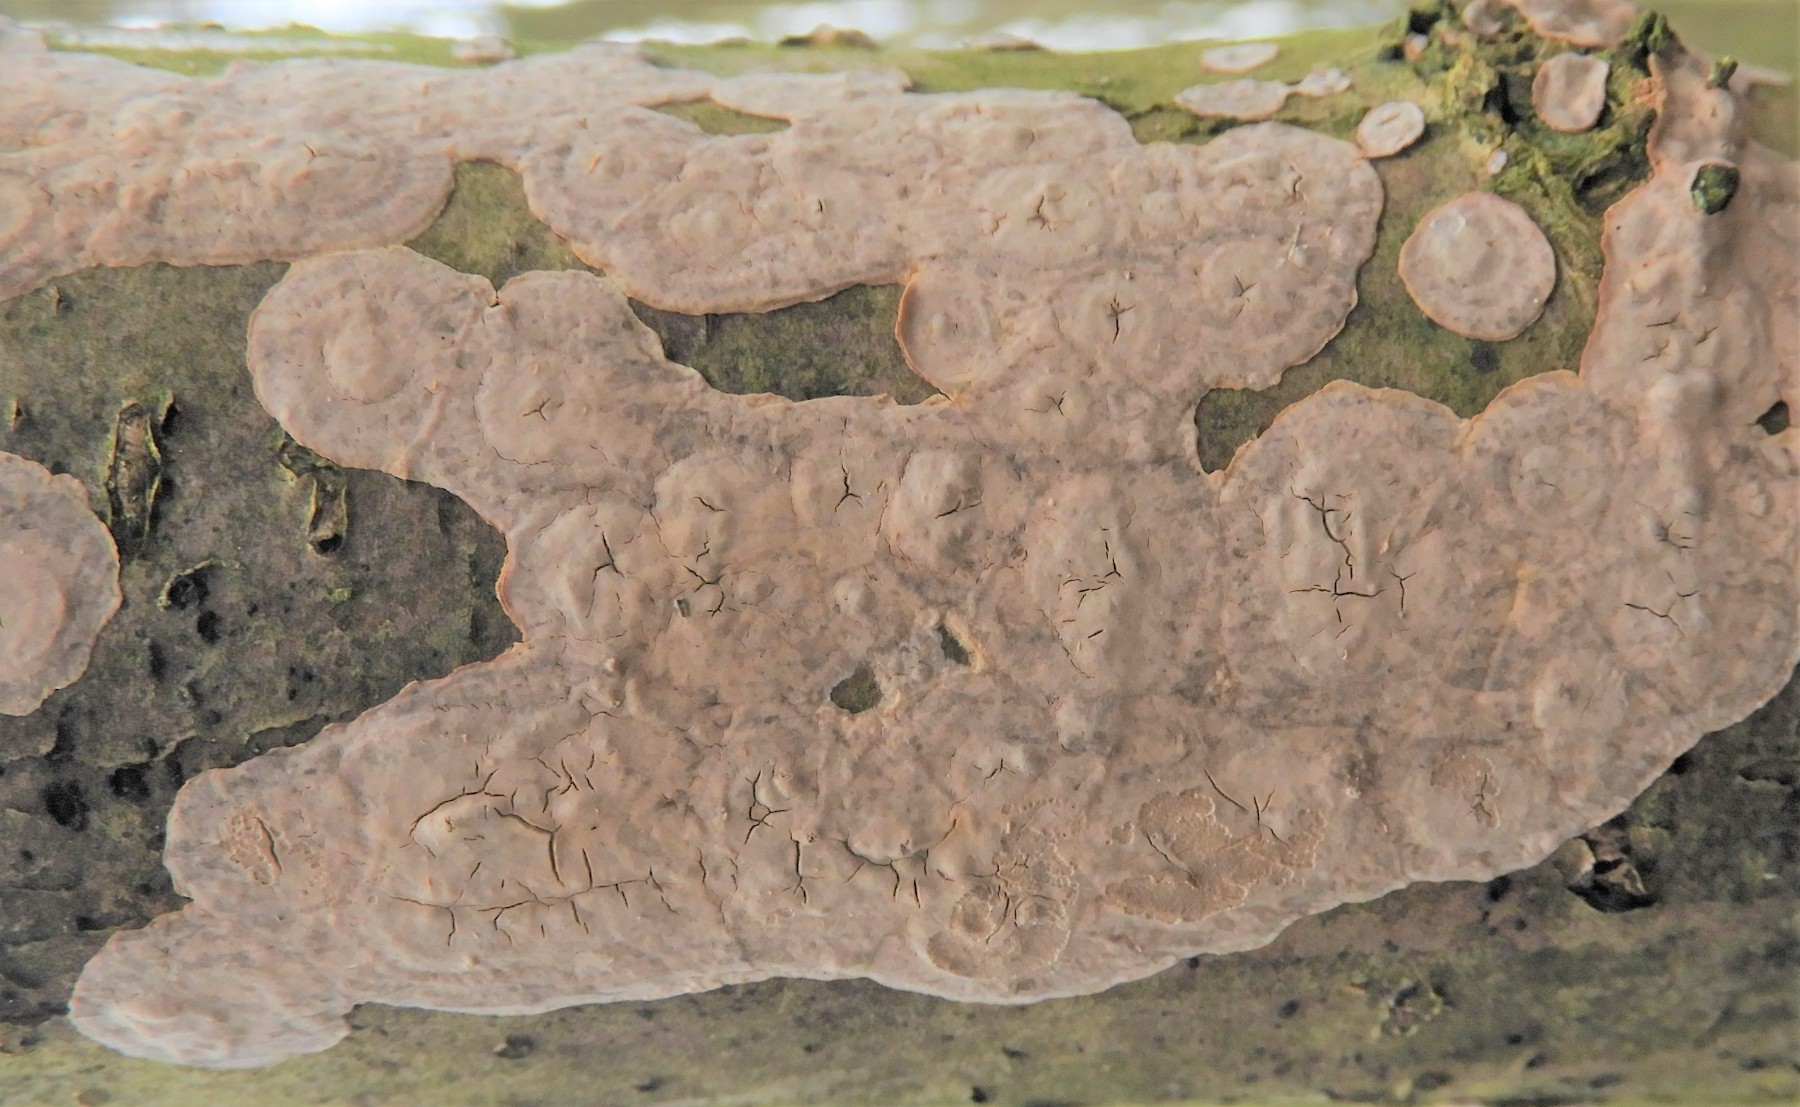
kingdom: Fungi
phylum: Basidiomycota
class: Agaricomycetes
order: Agaricales
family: Physalacriaceae
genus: Cylindrobasidium
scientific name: Cylindrobasidium evolvens
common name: sprækkehinde
